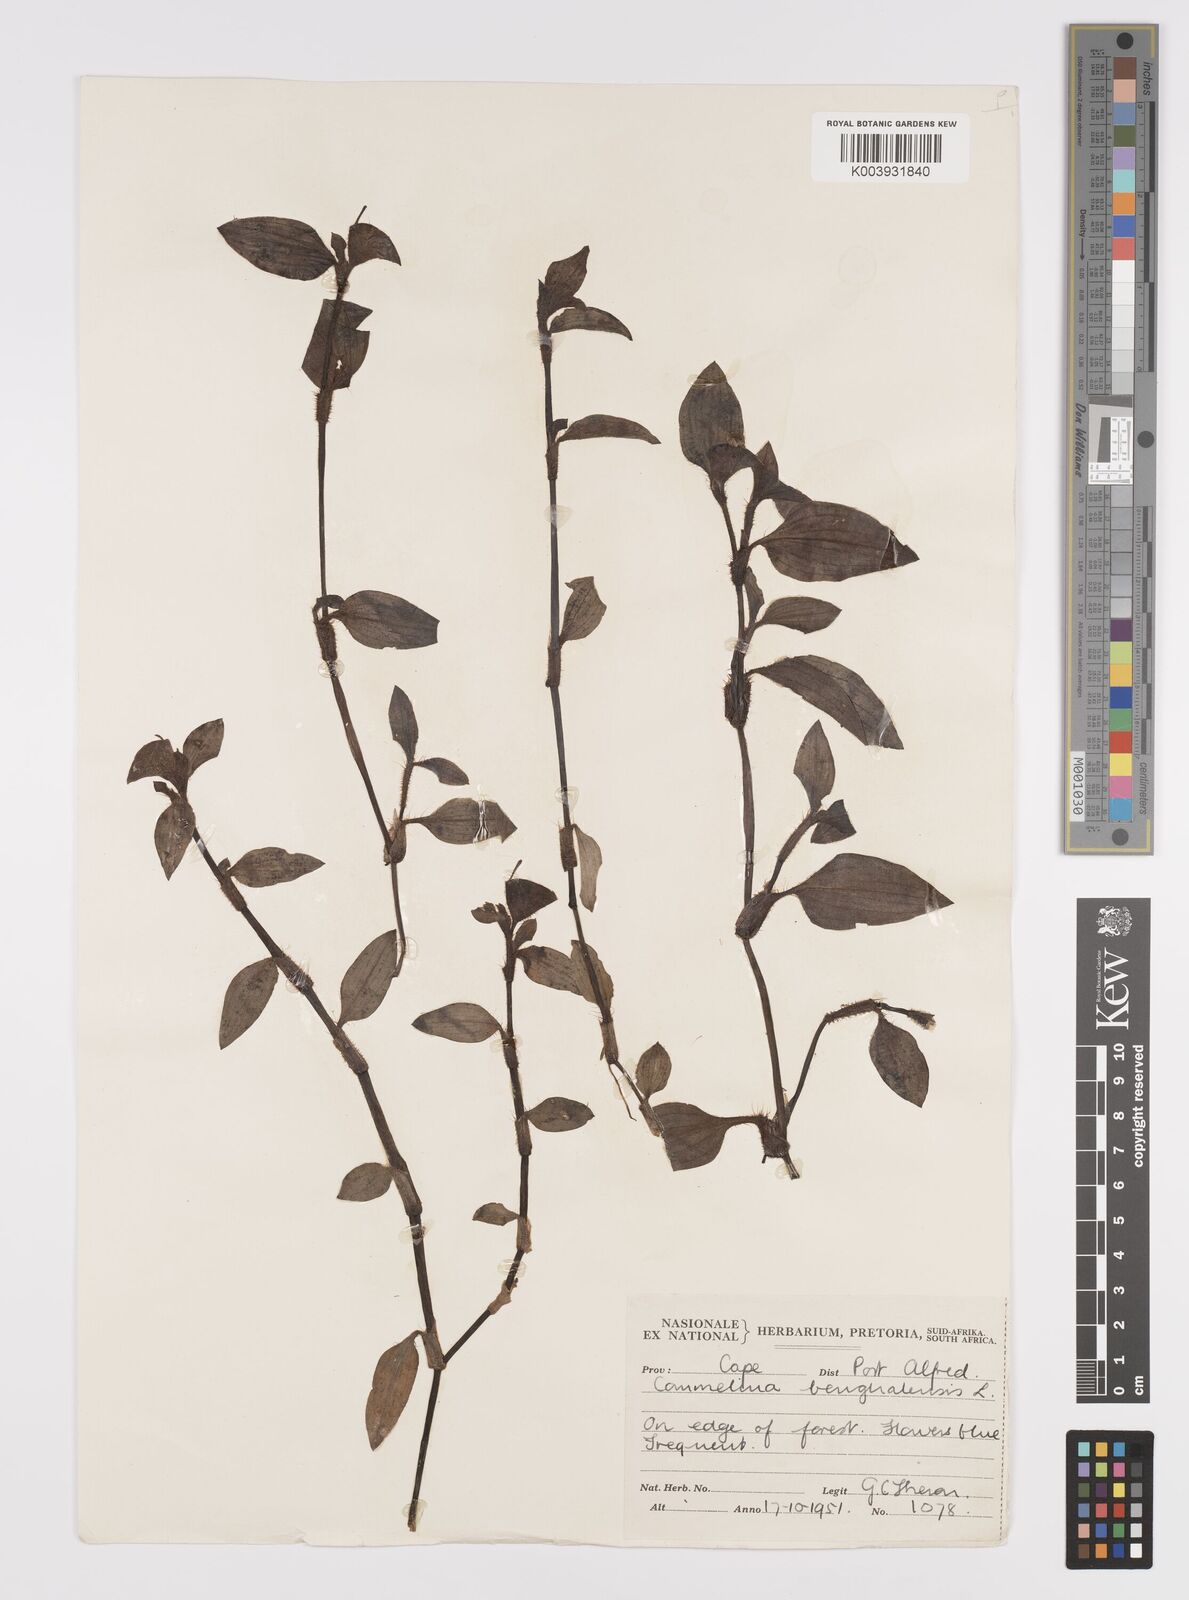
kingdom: Plantae
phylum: Tracheophyta
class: Liliopsida
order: Commelinales
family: Commelinaceae
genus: Commelina
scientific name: Commelina benghalensis
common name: Jio
